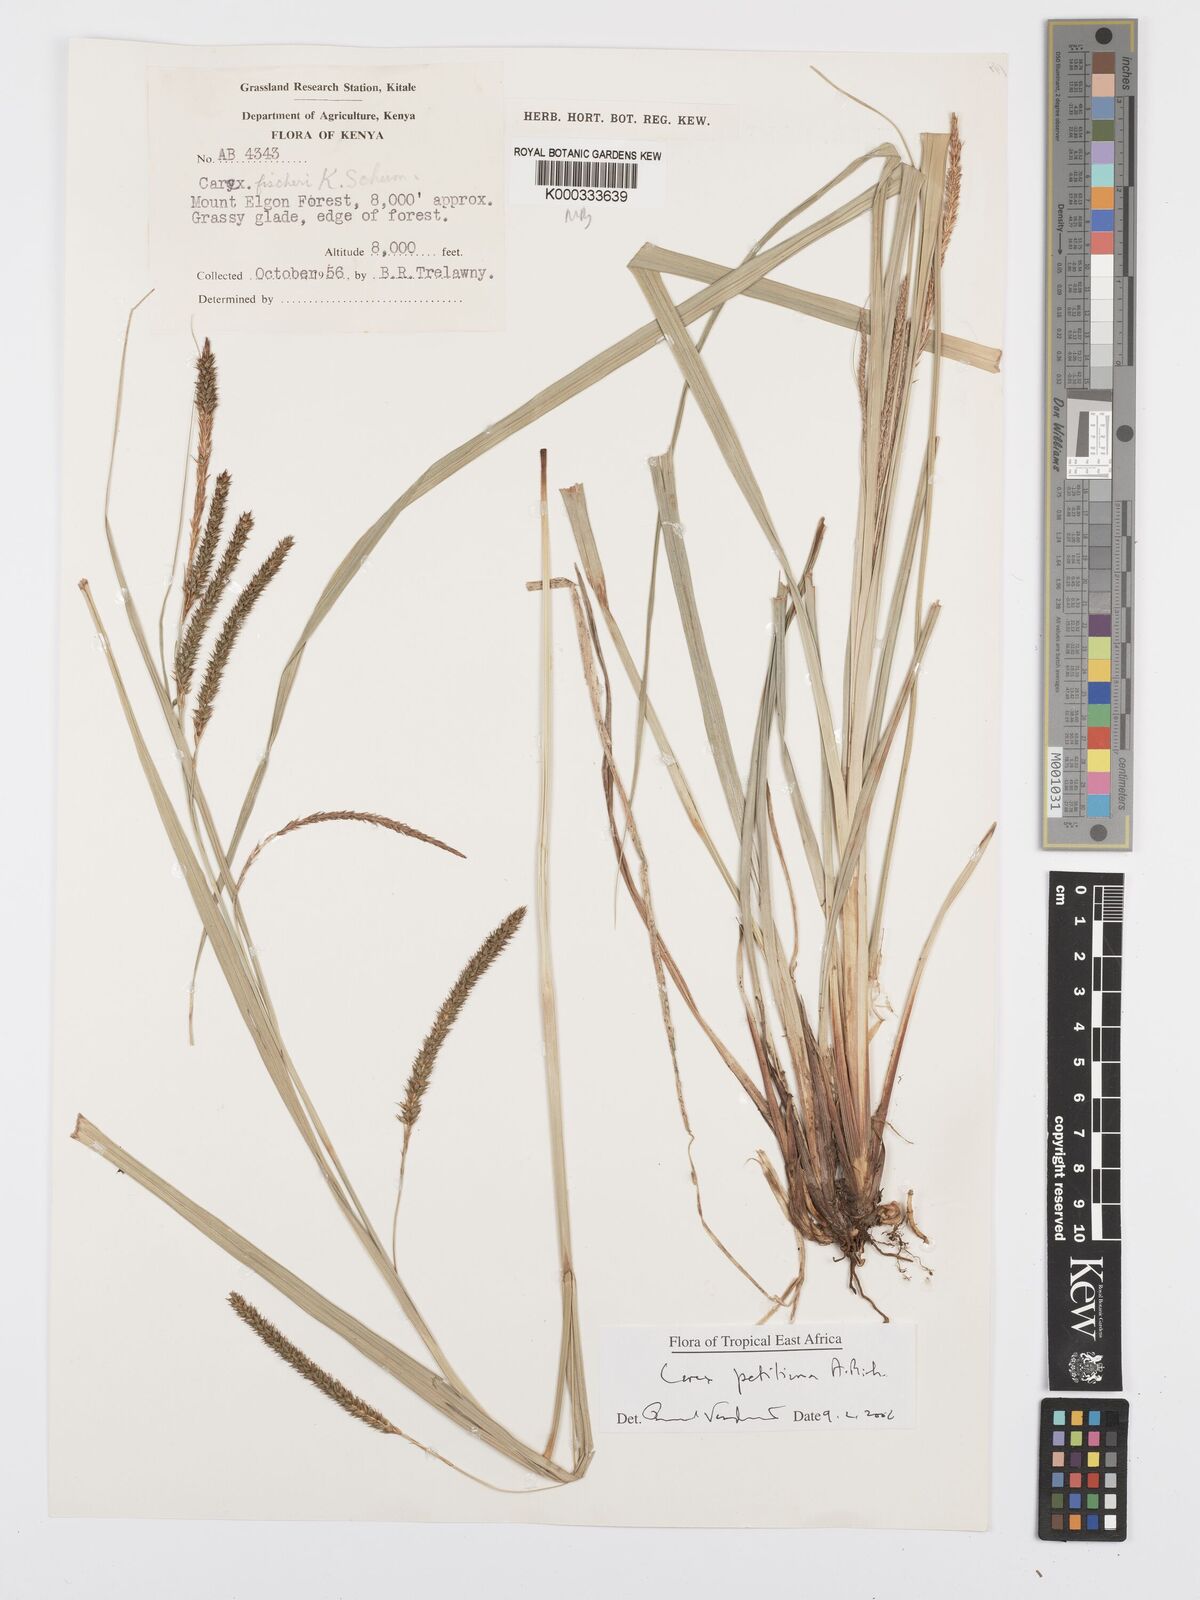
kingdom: Plantae
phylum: Tracheophyta
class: Liliopsida
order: Poales
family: Cyperaceae
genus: Carex
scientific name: Carex petitiana
